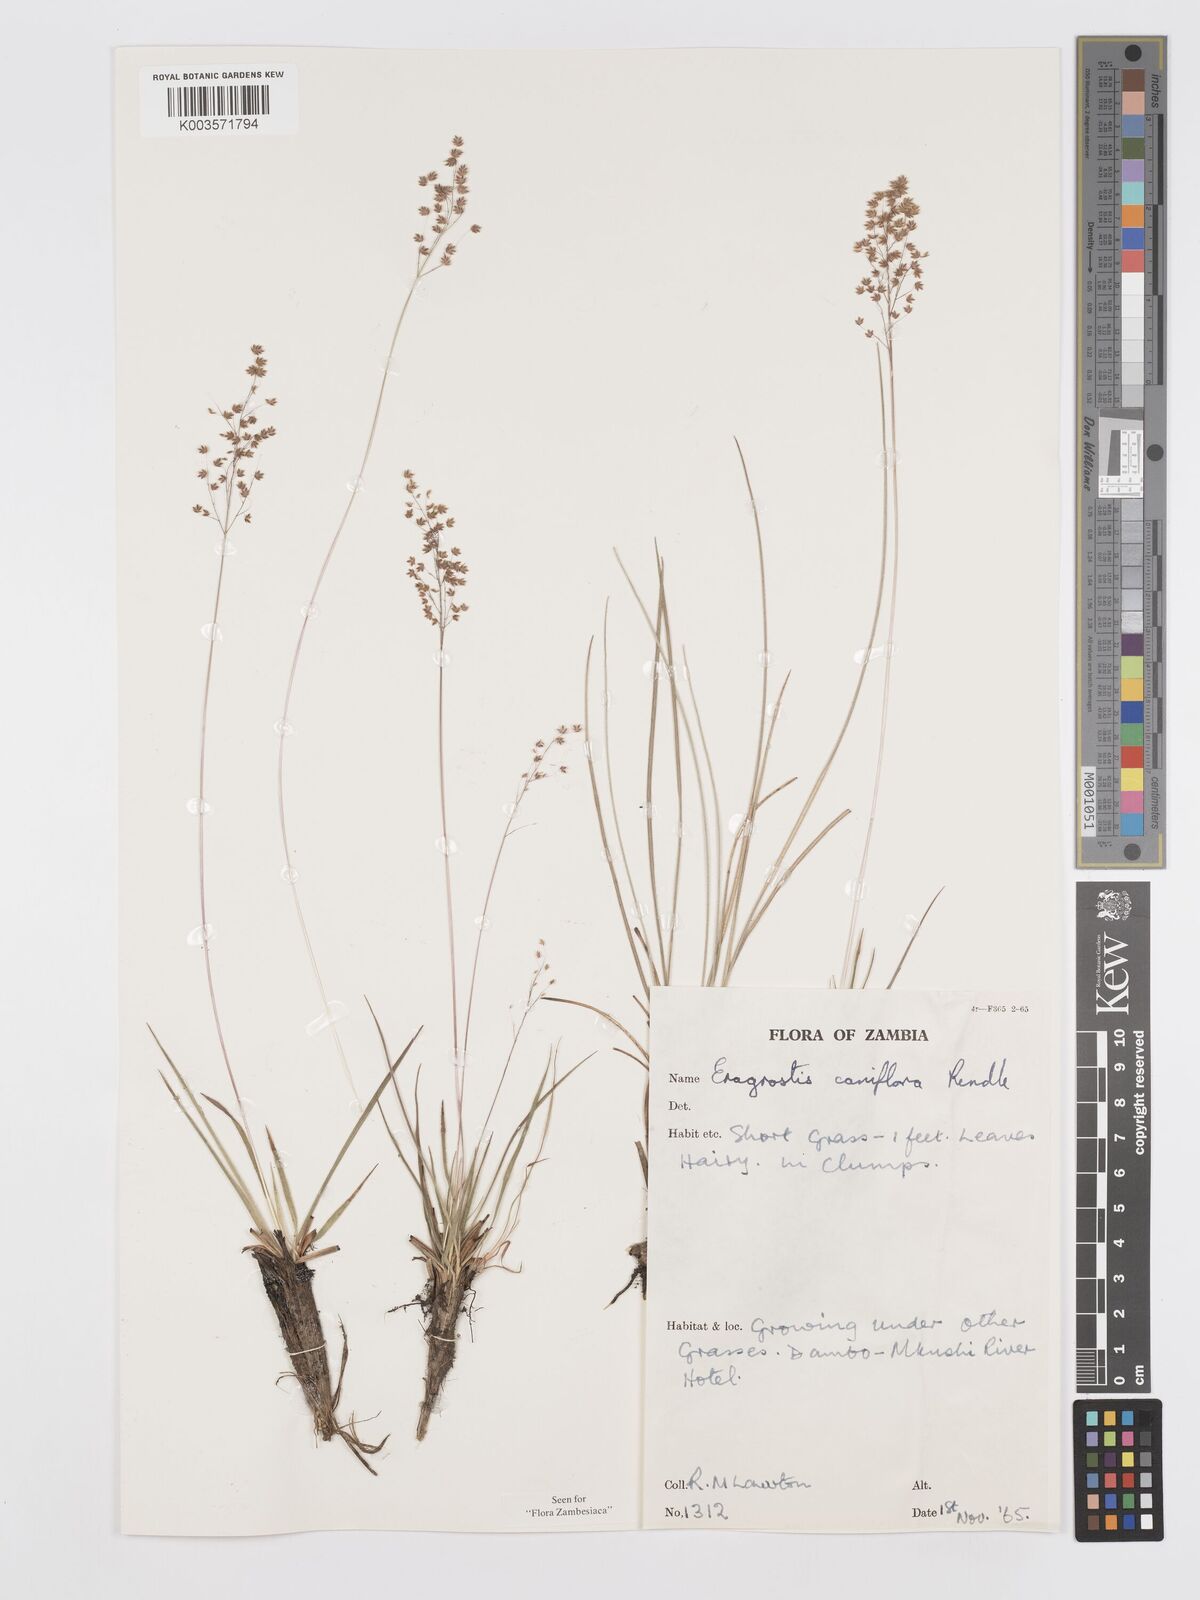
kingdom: Plantae
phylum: Tracheophyta
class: Liliopsida
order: Poales
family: Poaceae
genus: Eragrostis
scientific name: Eragrostis caniflora
